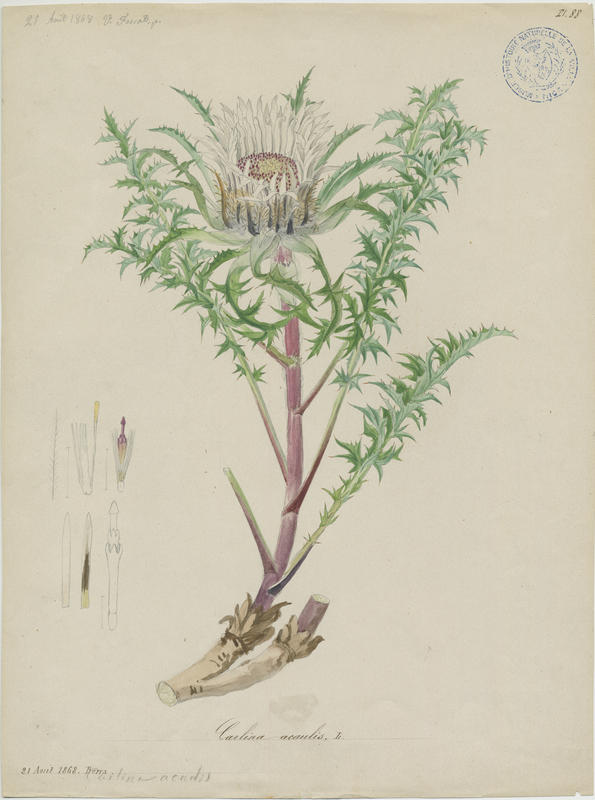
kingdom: Plantae
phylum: Tracheophyta
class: Magnoliopsida
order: Asterales
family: Asteraceae
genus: Carlina
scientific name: Carlina acaulis
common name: Stemless carline thistle
